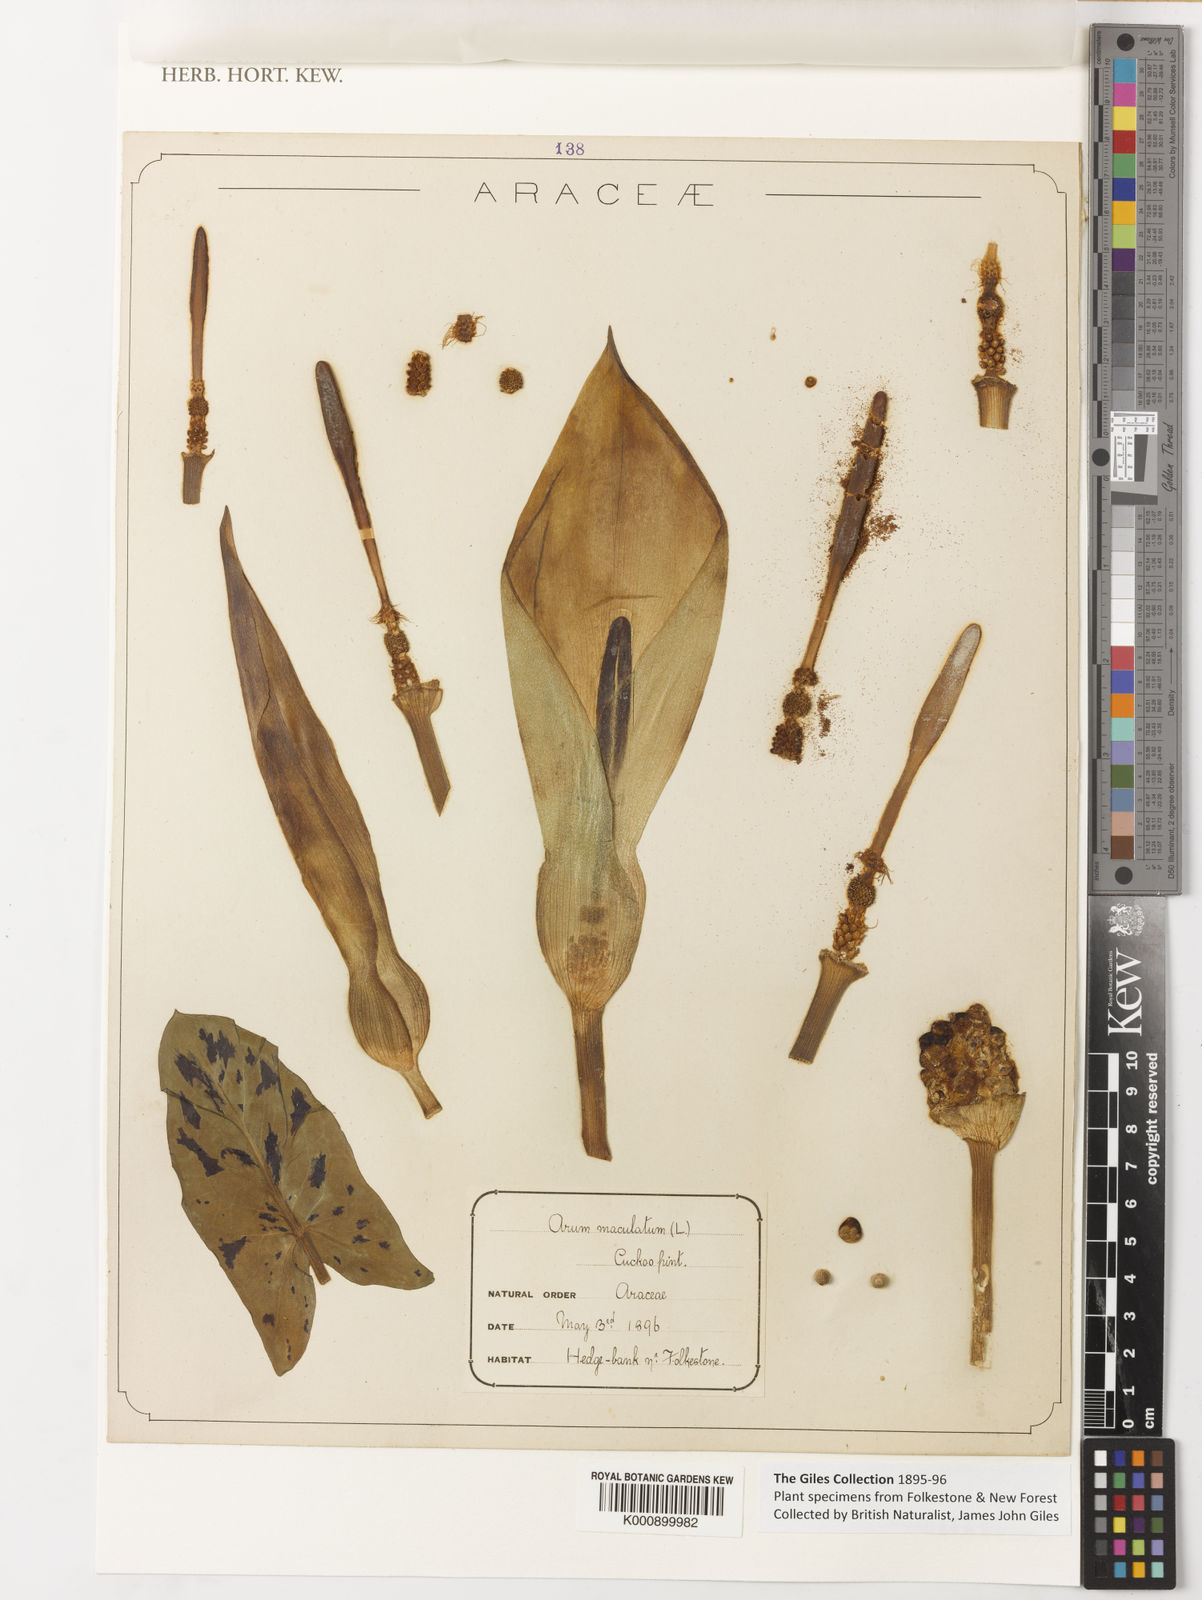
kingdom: Plantae
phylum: Tracheophyta
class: Liliopsida
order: Alismatales
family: Araceae
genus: Arum
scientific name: Arum maculatum
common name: Lords-and-ladies
